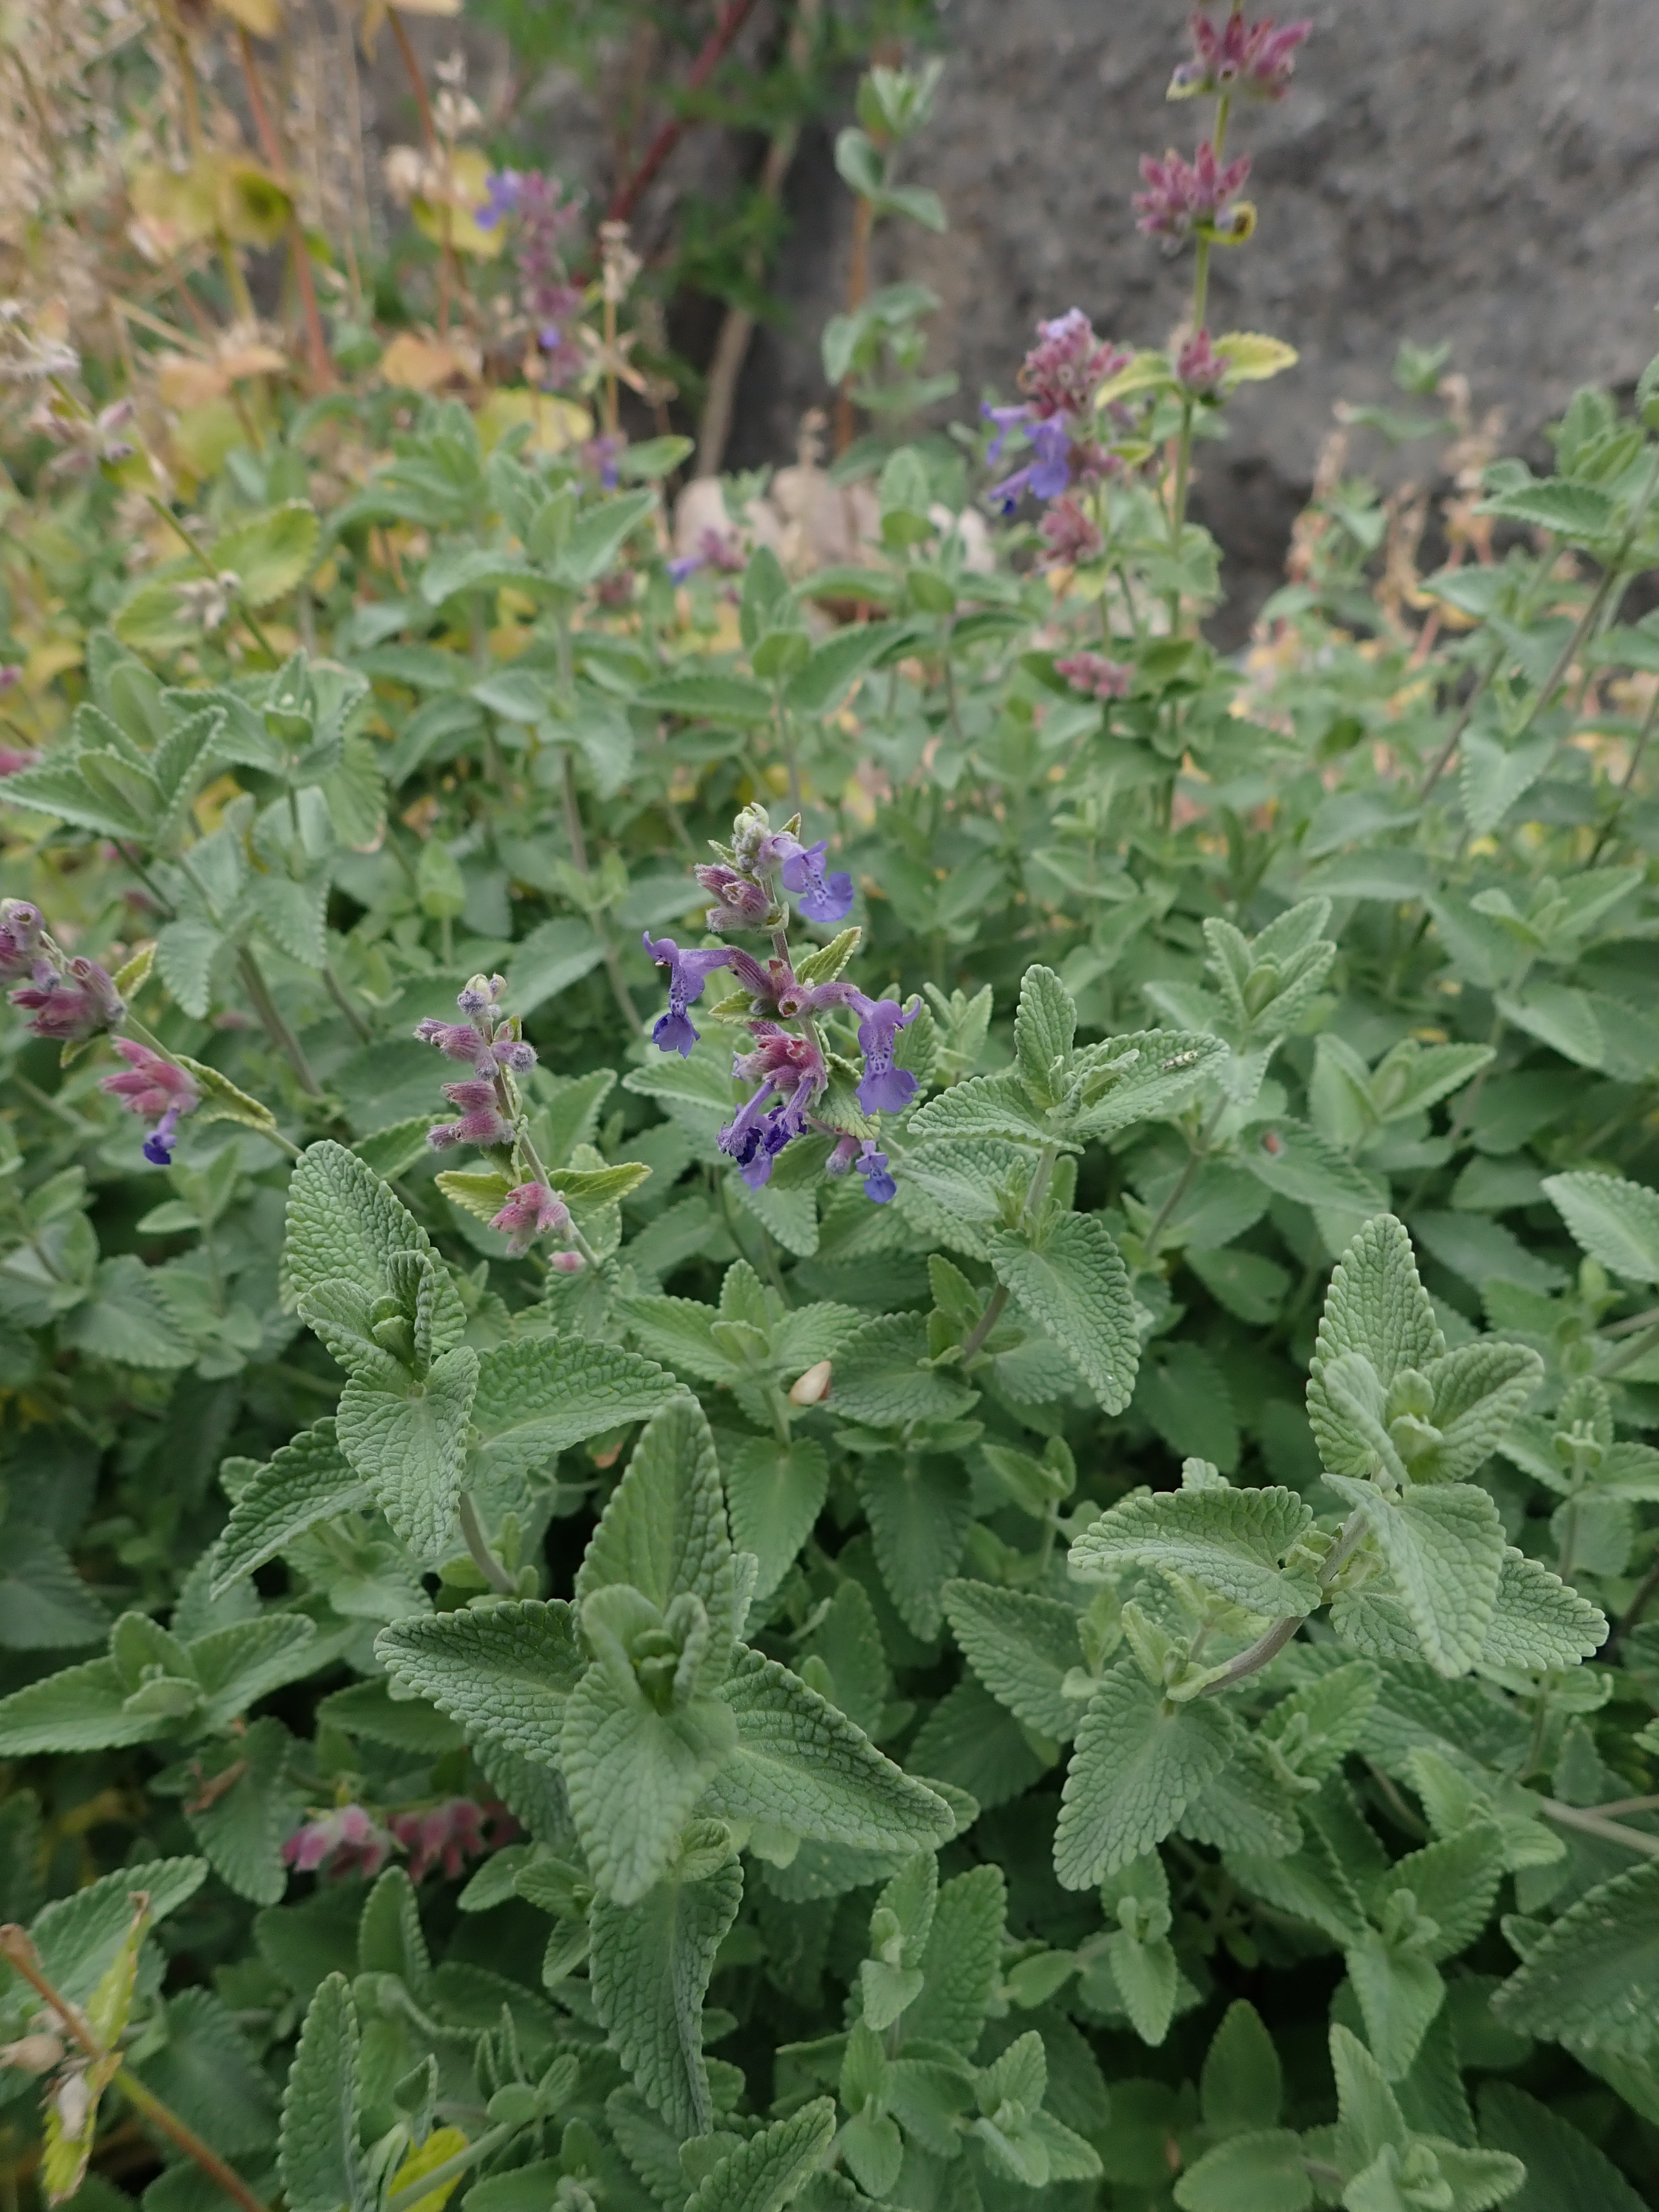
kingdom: Plantae
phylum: Tracheophyta
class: Magnoliopsida
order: Lamiales
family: Lamiaceae
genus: Nepeta
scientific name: Nepeta racemosa
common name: Raceme catnip
